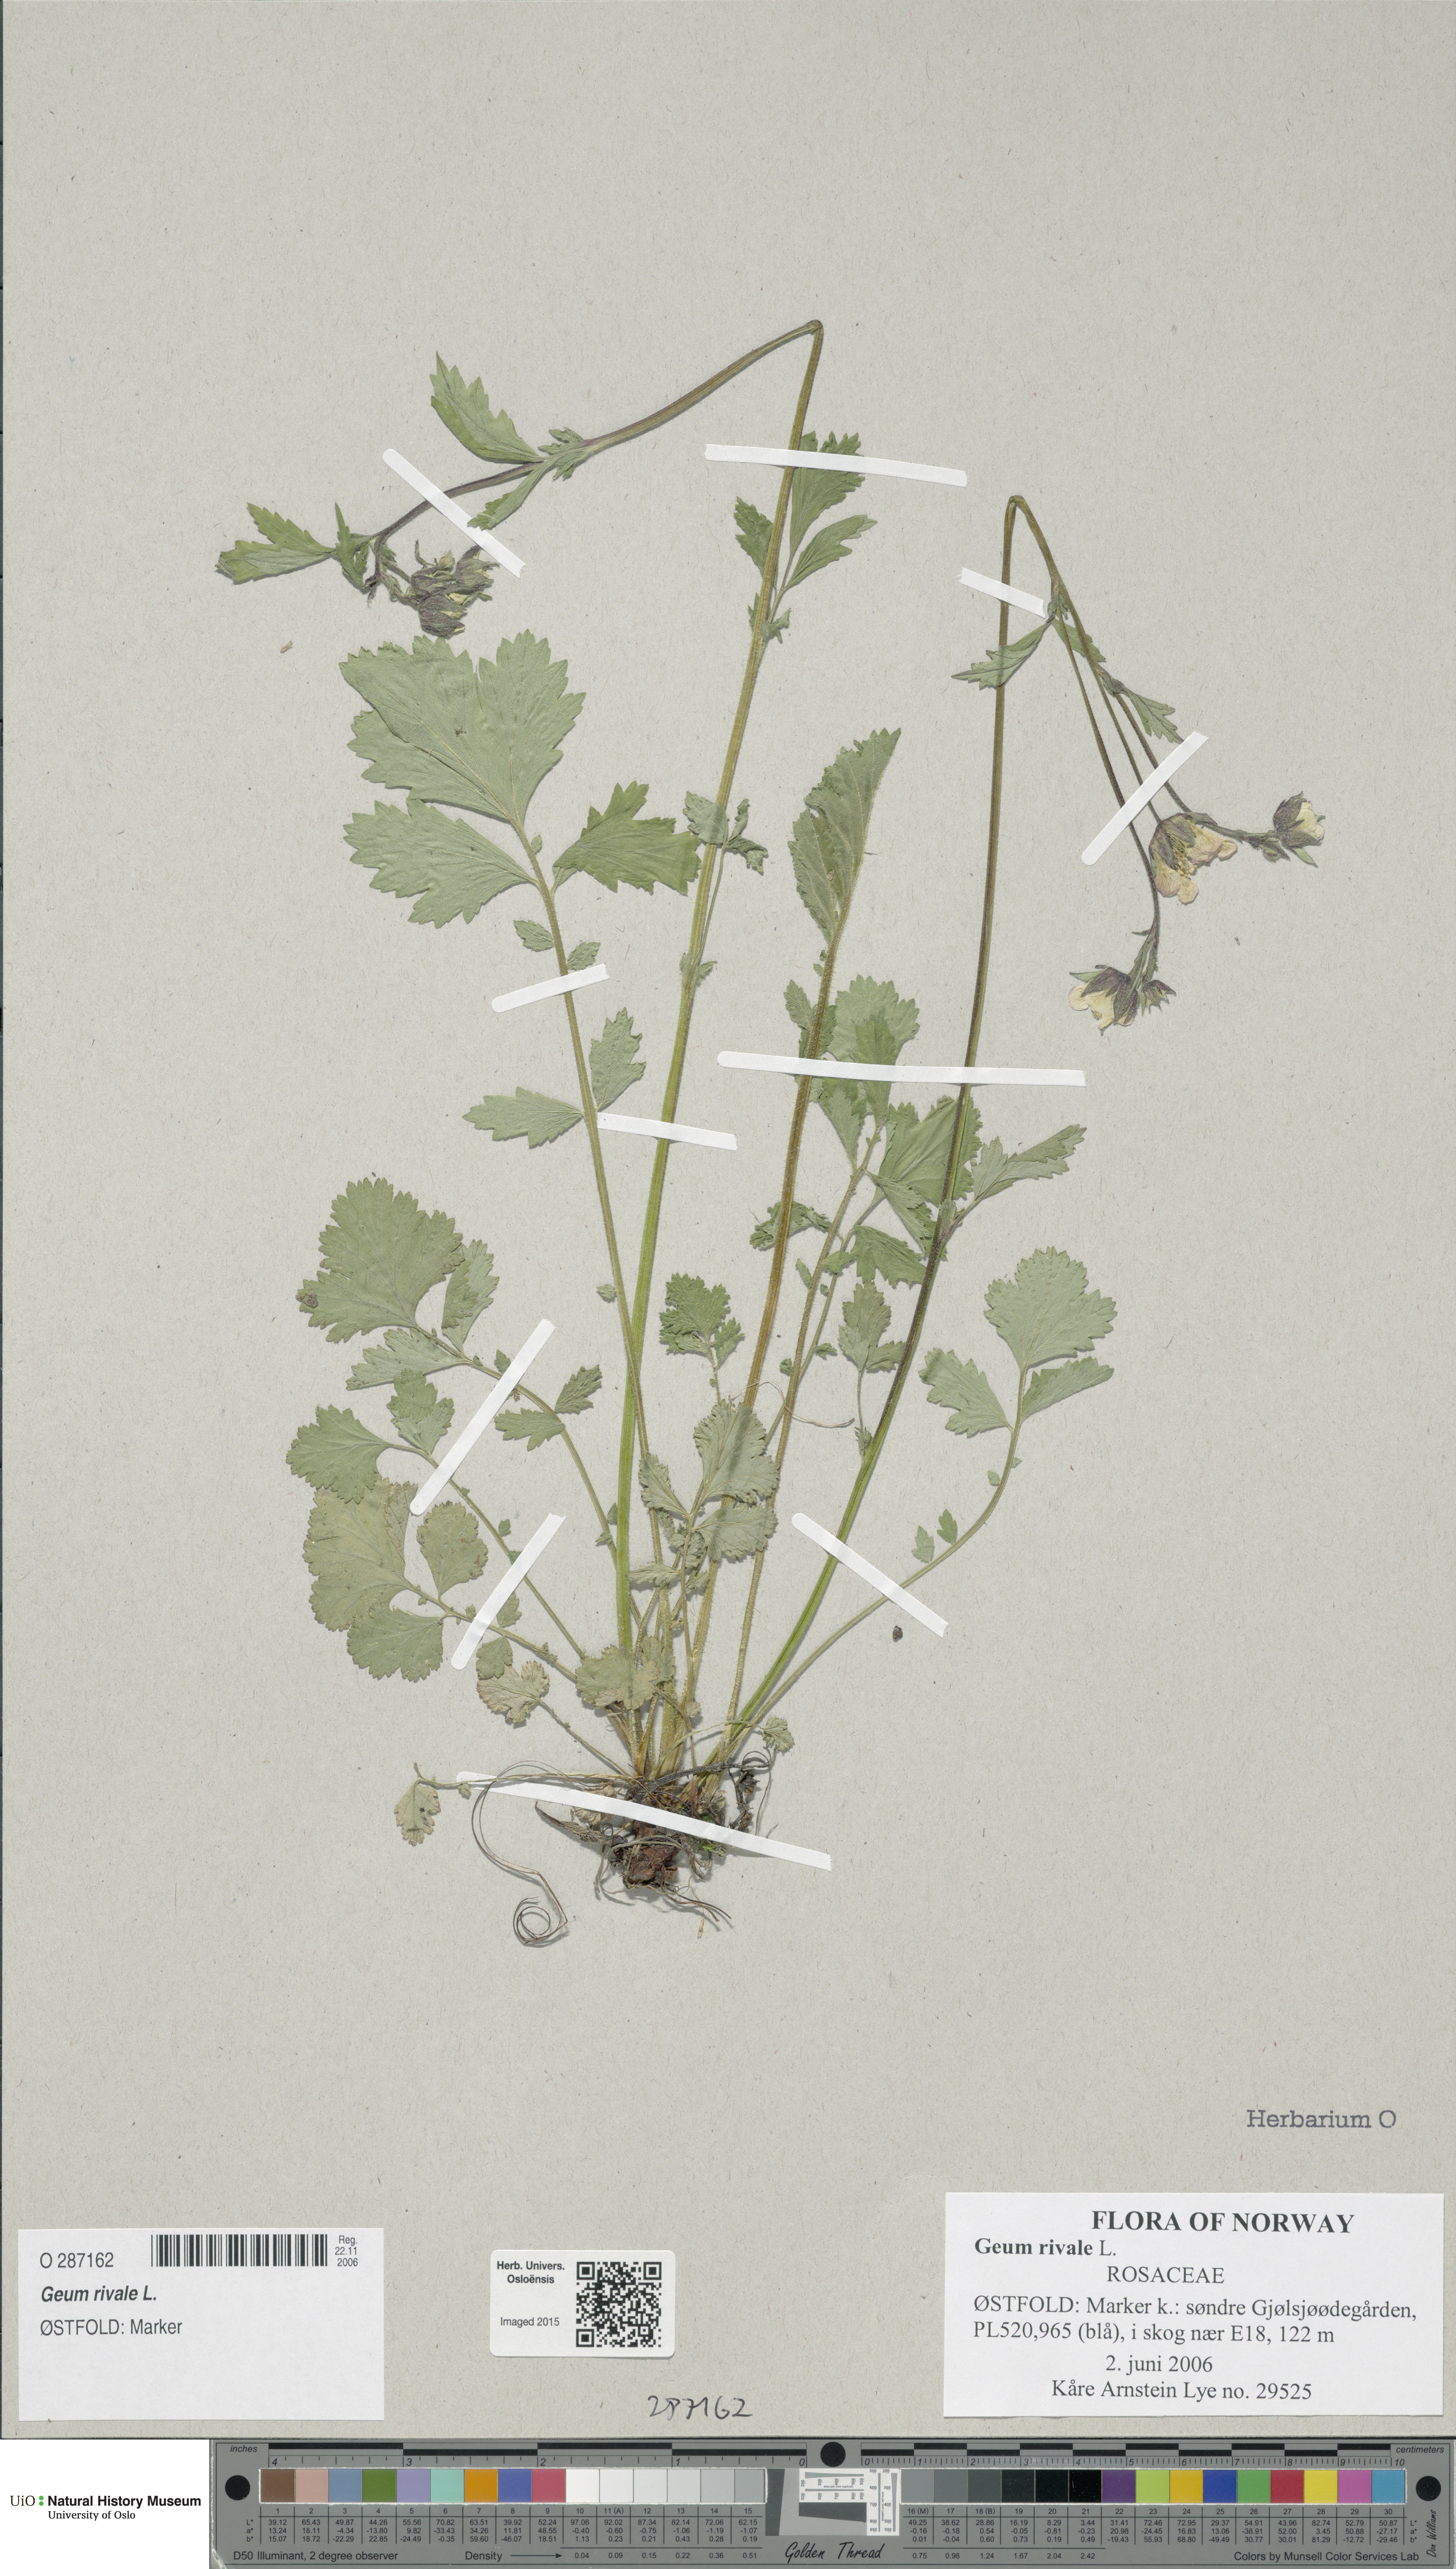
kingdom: Plantae
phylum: Tracheophyta
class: Magnoliopsida
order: Rosales
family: Rosaceae
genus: Geum
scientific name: Geum rivale
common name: Water avens
